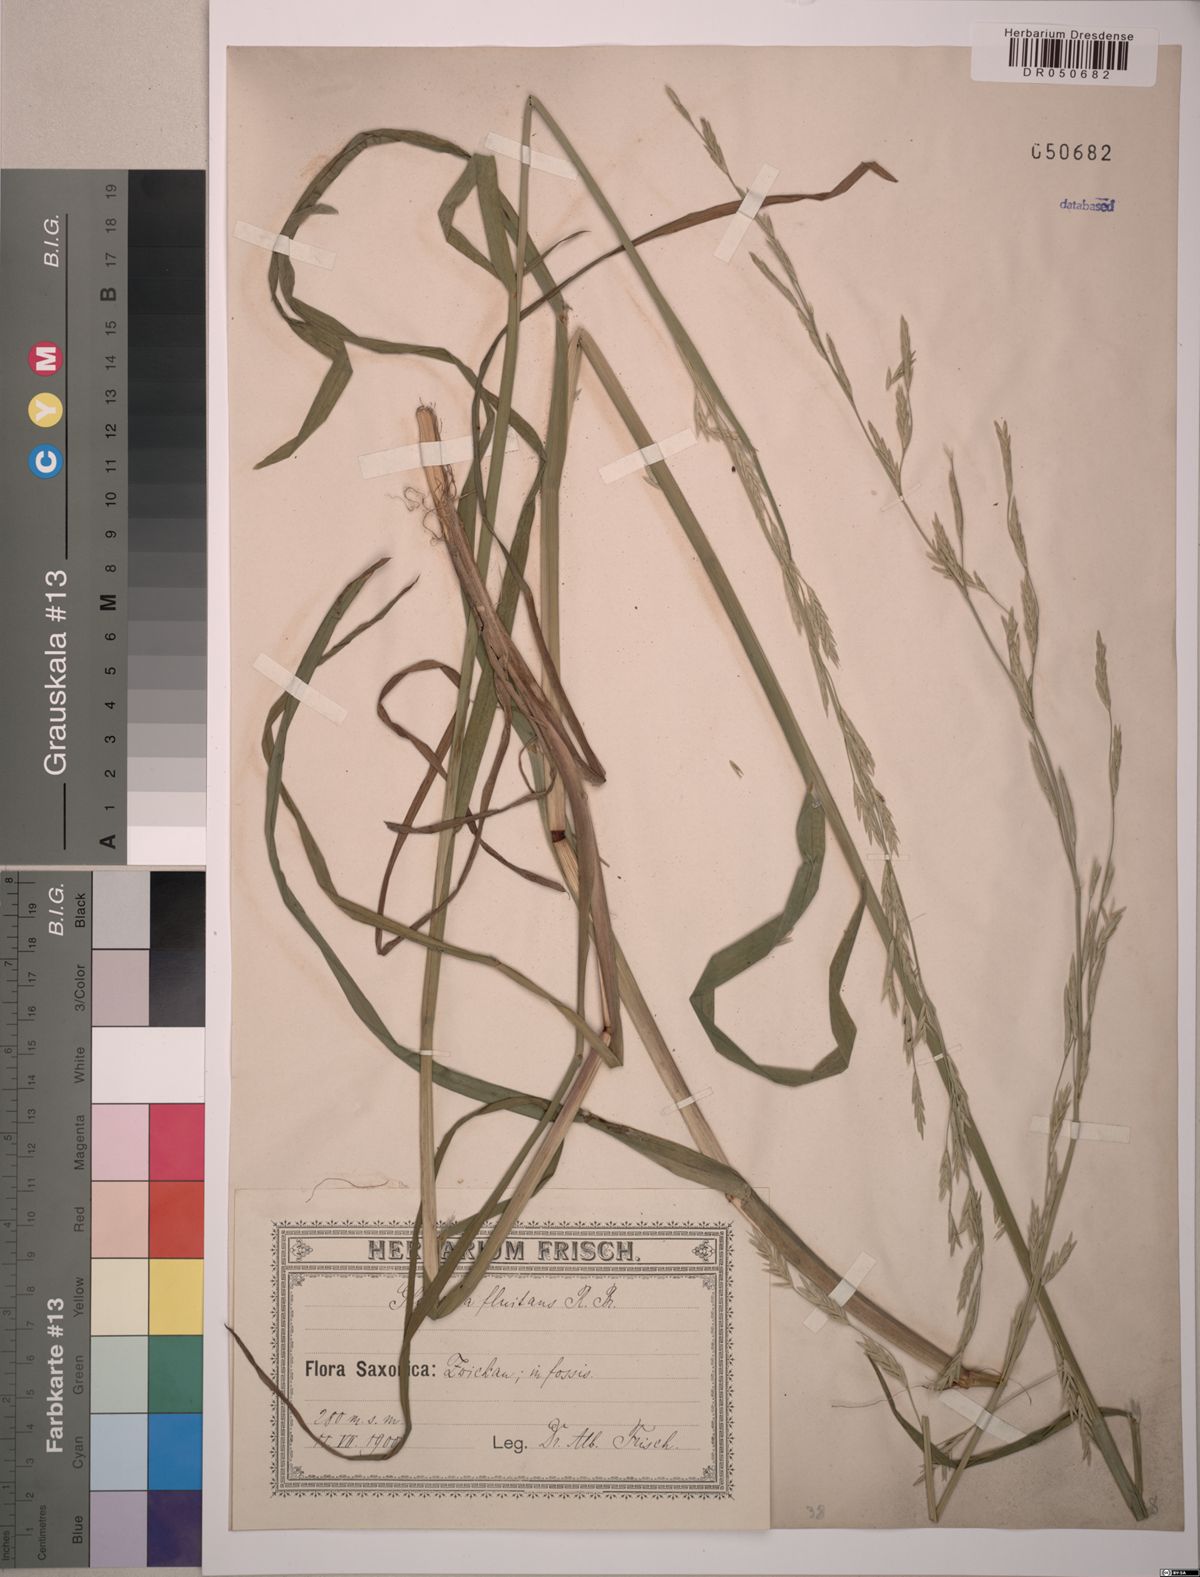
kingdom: Plantae
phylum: Tracheophyta
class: Liliopsida
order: Poales
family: Poaceae
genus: Glyceria
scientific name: Glyceria fluitans
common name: Floating sweet-grass
